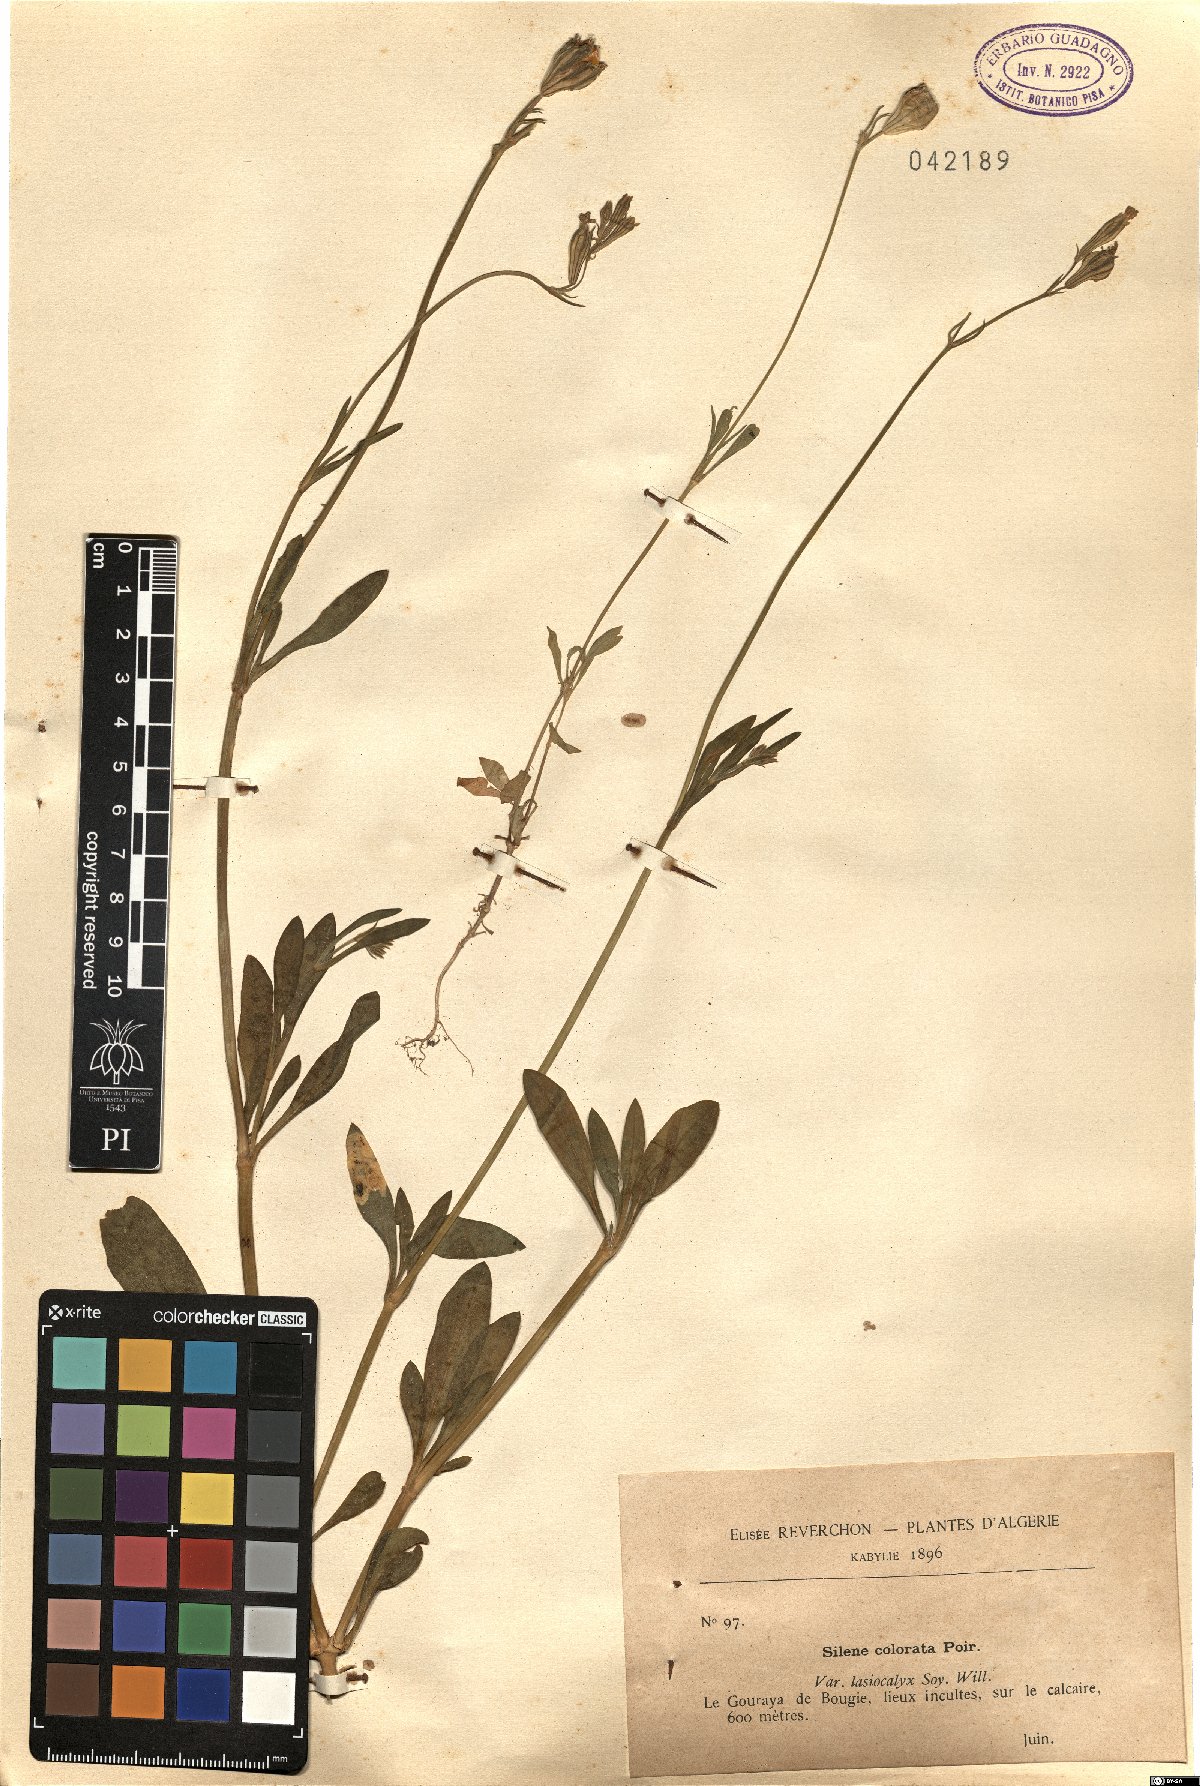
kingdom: Plantae
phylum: Tracheophyta
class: Magnoliopsida
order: Caryophyllales
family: Caryophyllaceae
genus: Silene
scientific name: Silene colorata
